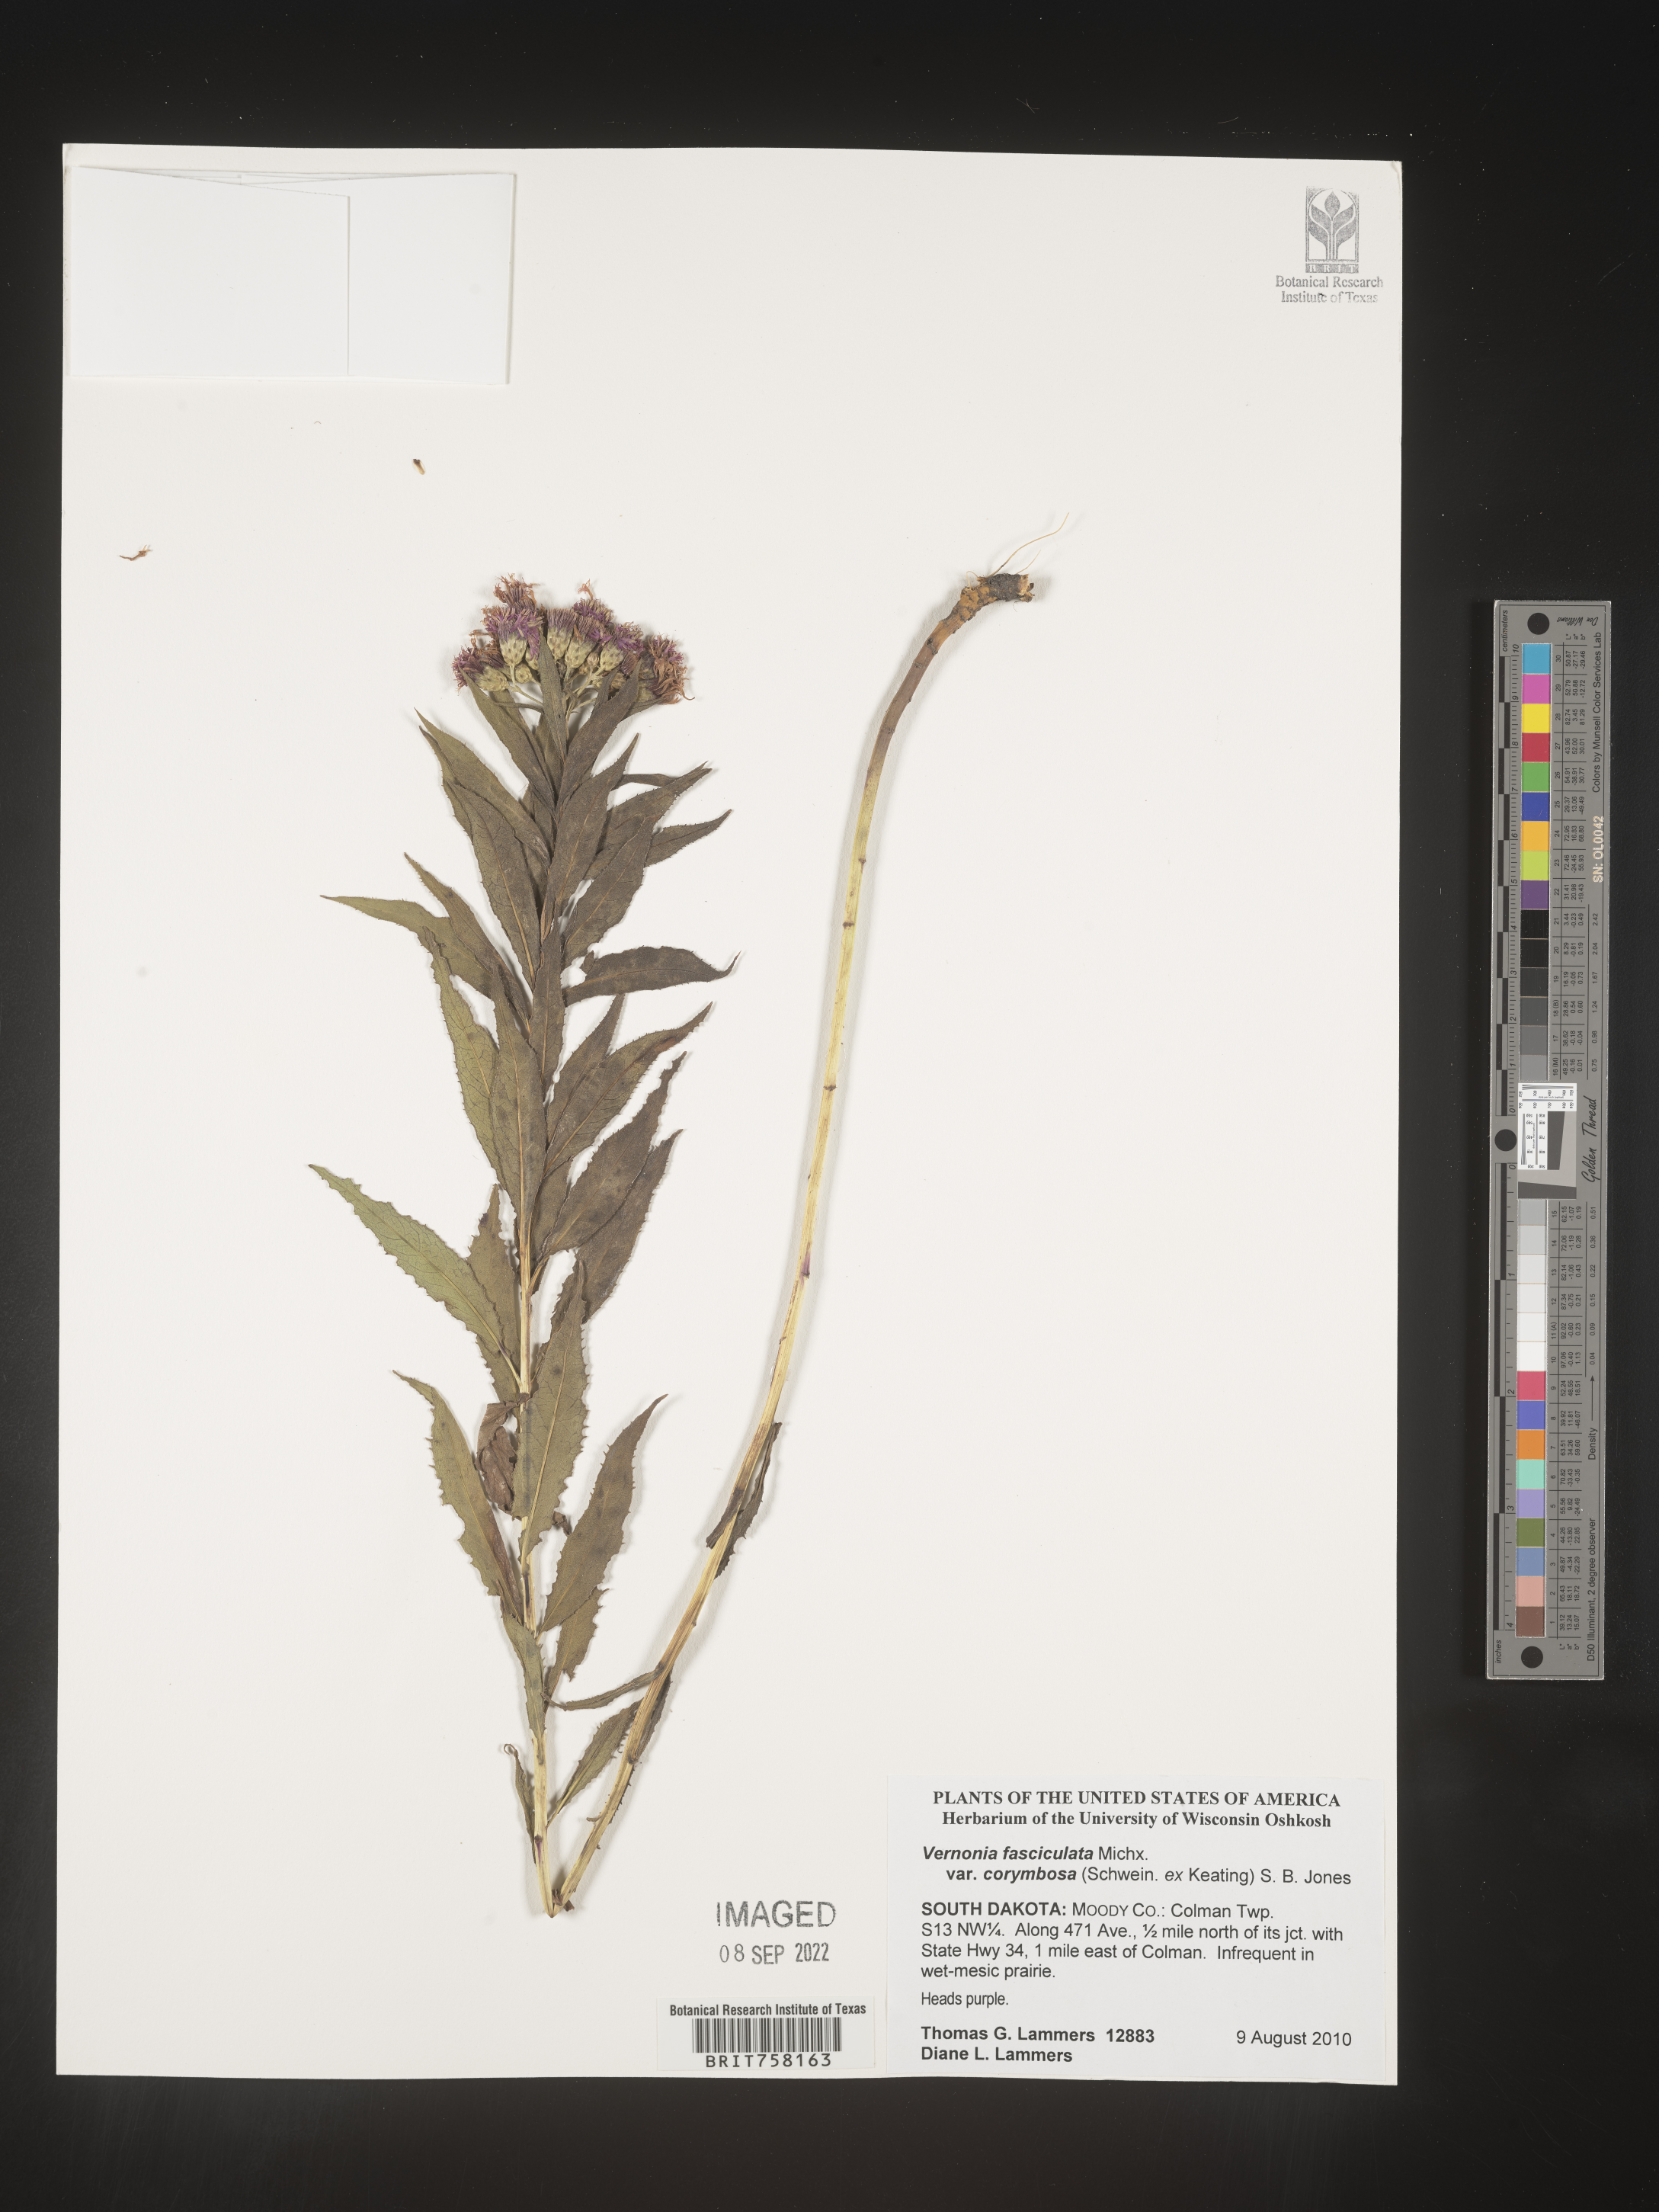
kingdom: Plantae
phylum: Tracheophyta
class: Magnoliopsida
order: Asterales
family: Asteraceae
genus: Vernonia
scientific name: Vernonia fasciculata
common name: Fascicled ironweed
